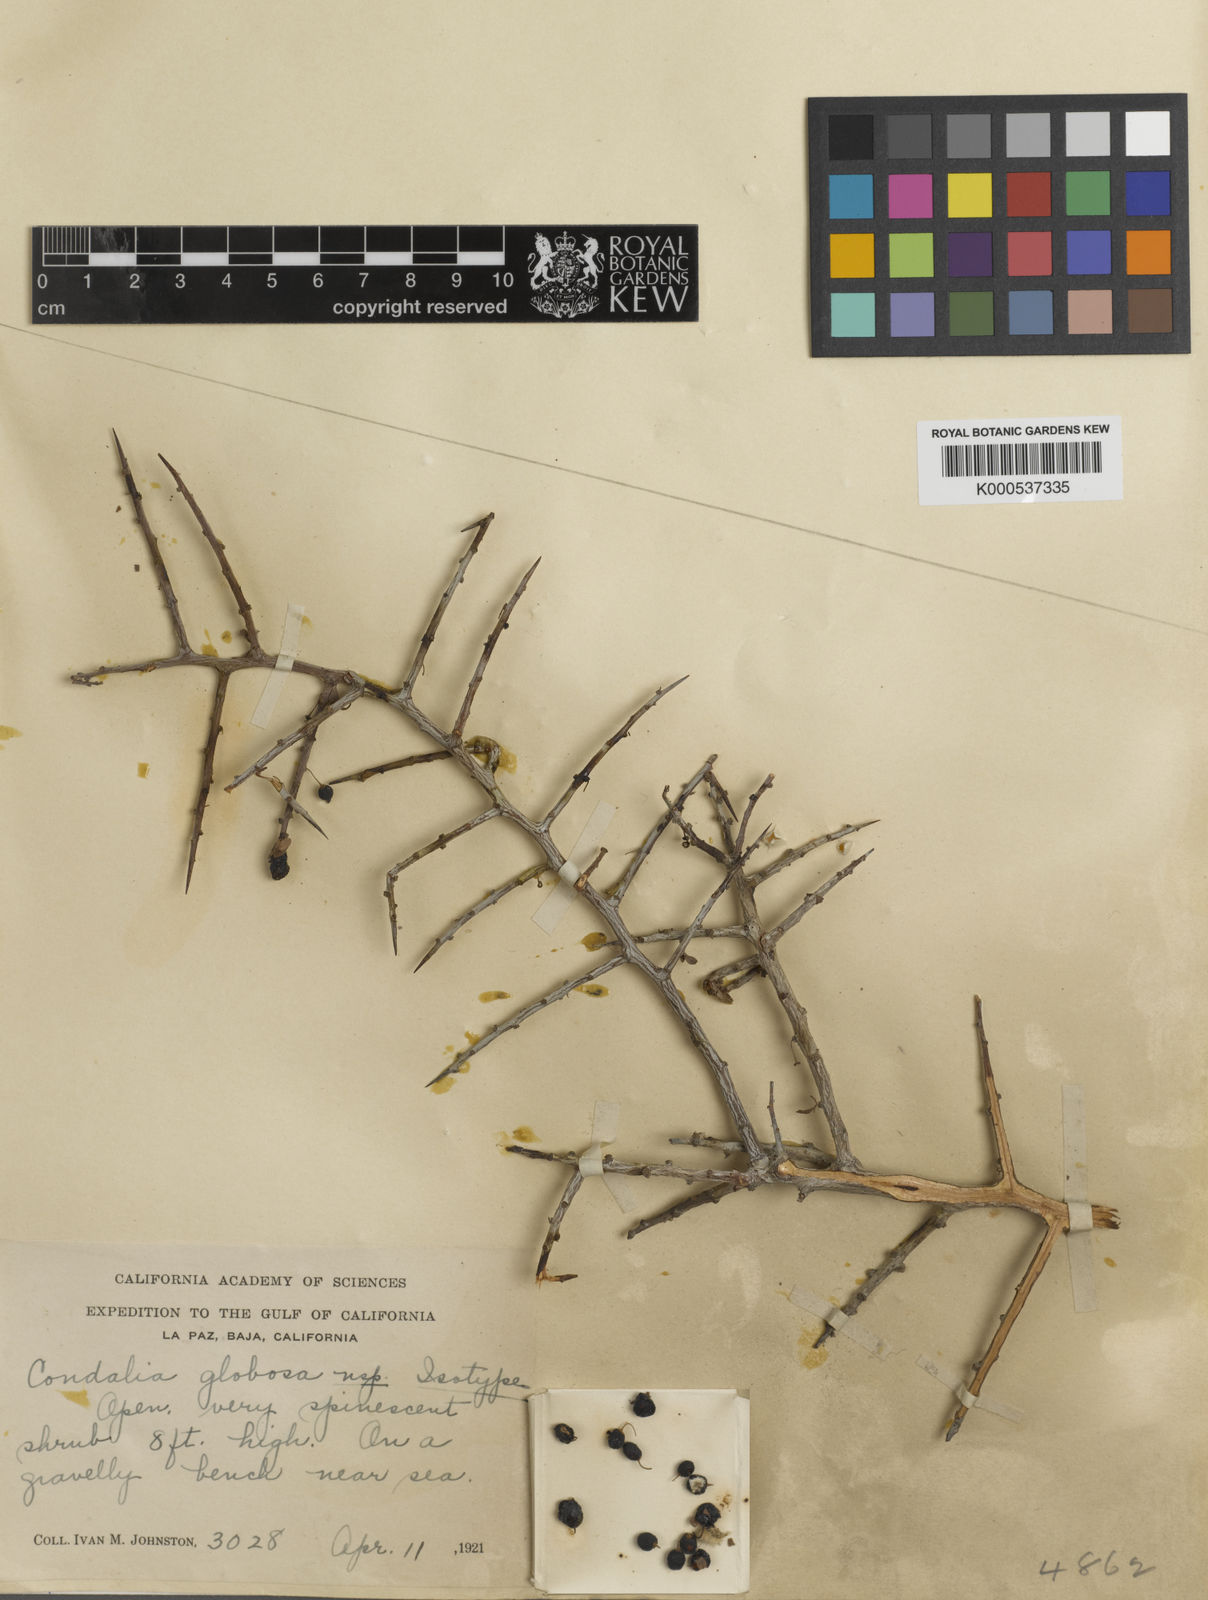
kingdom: Plantae
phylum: Tracheophyta
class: Magnoliopsida
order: Rosales
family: Rhamnaceae
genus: Condalia
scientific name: Condalia globosa
